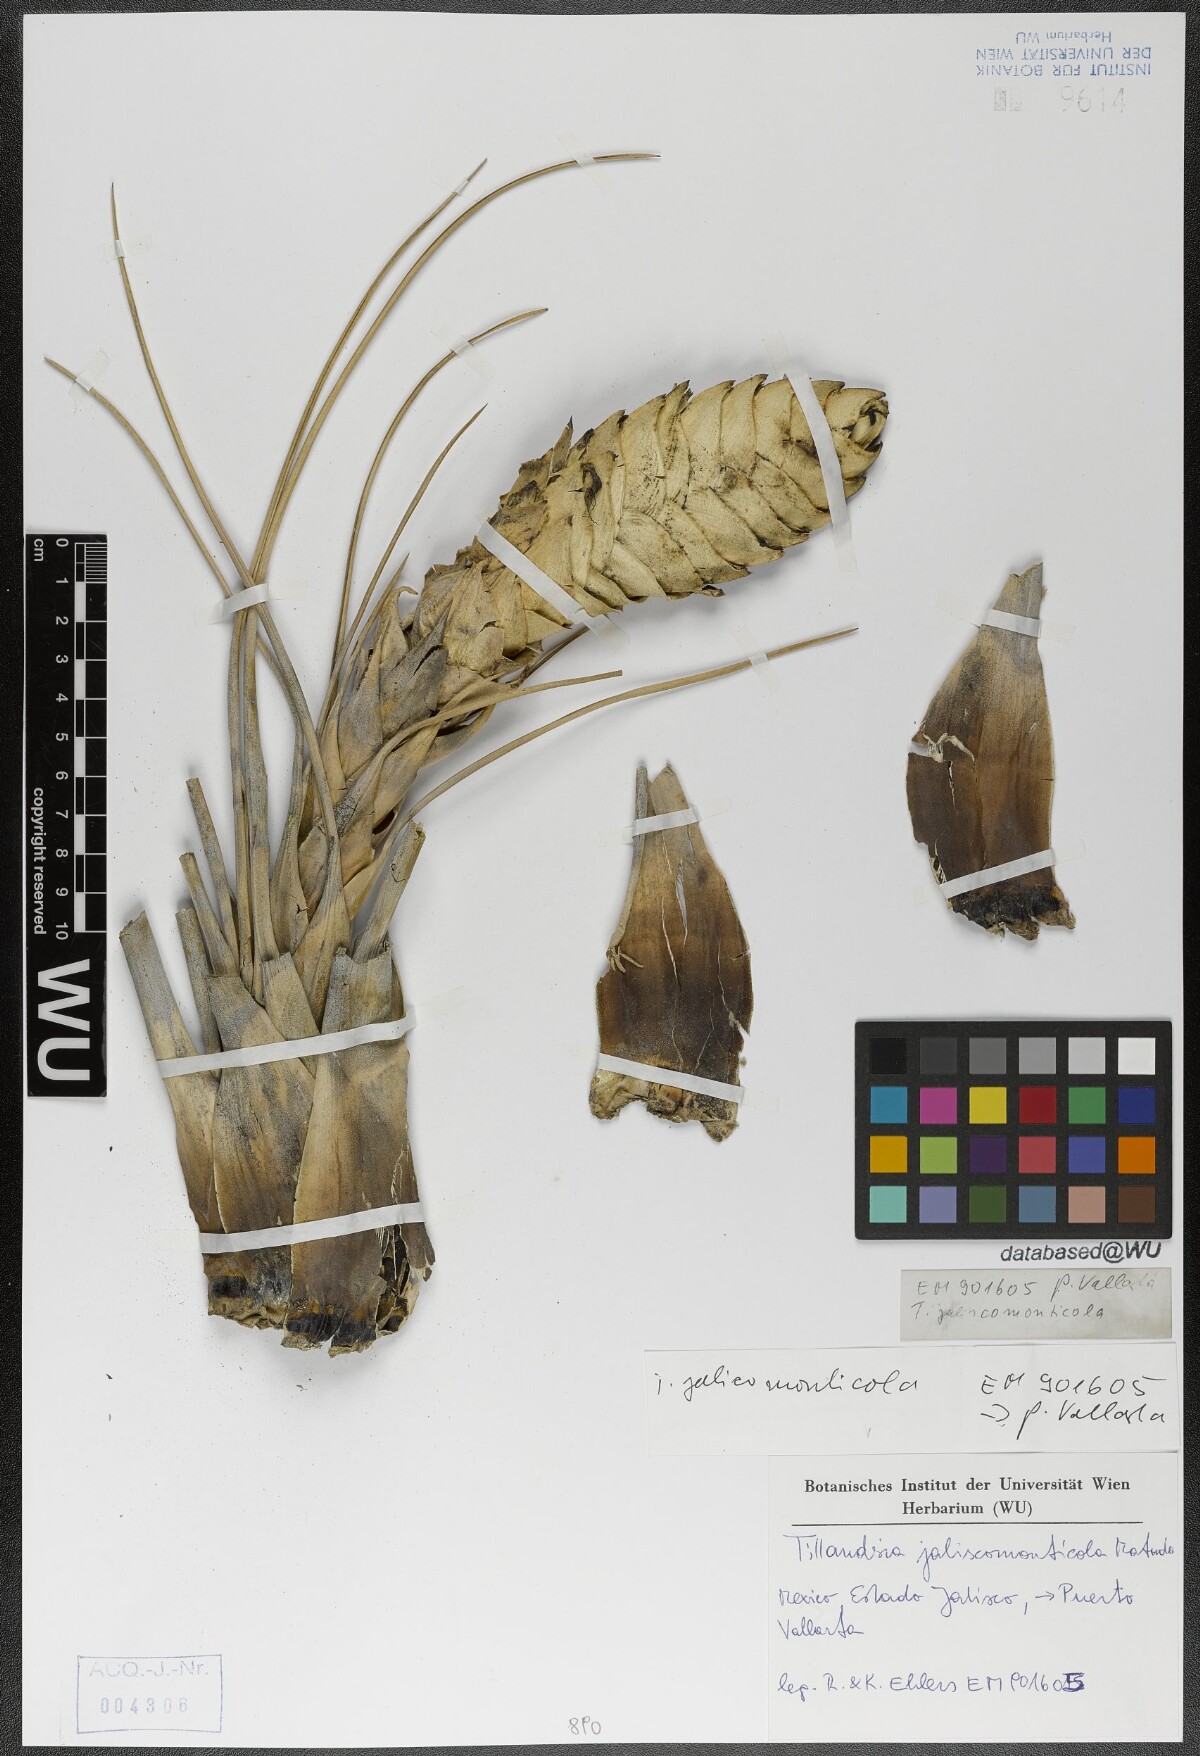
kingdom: Plantae
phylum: Tracheophyta
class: Liliopsida
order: Poales
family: Bromeliaceae
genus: Tillandsia
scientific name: Tillandsia compressa
